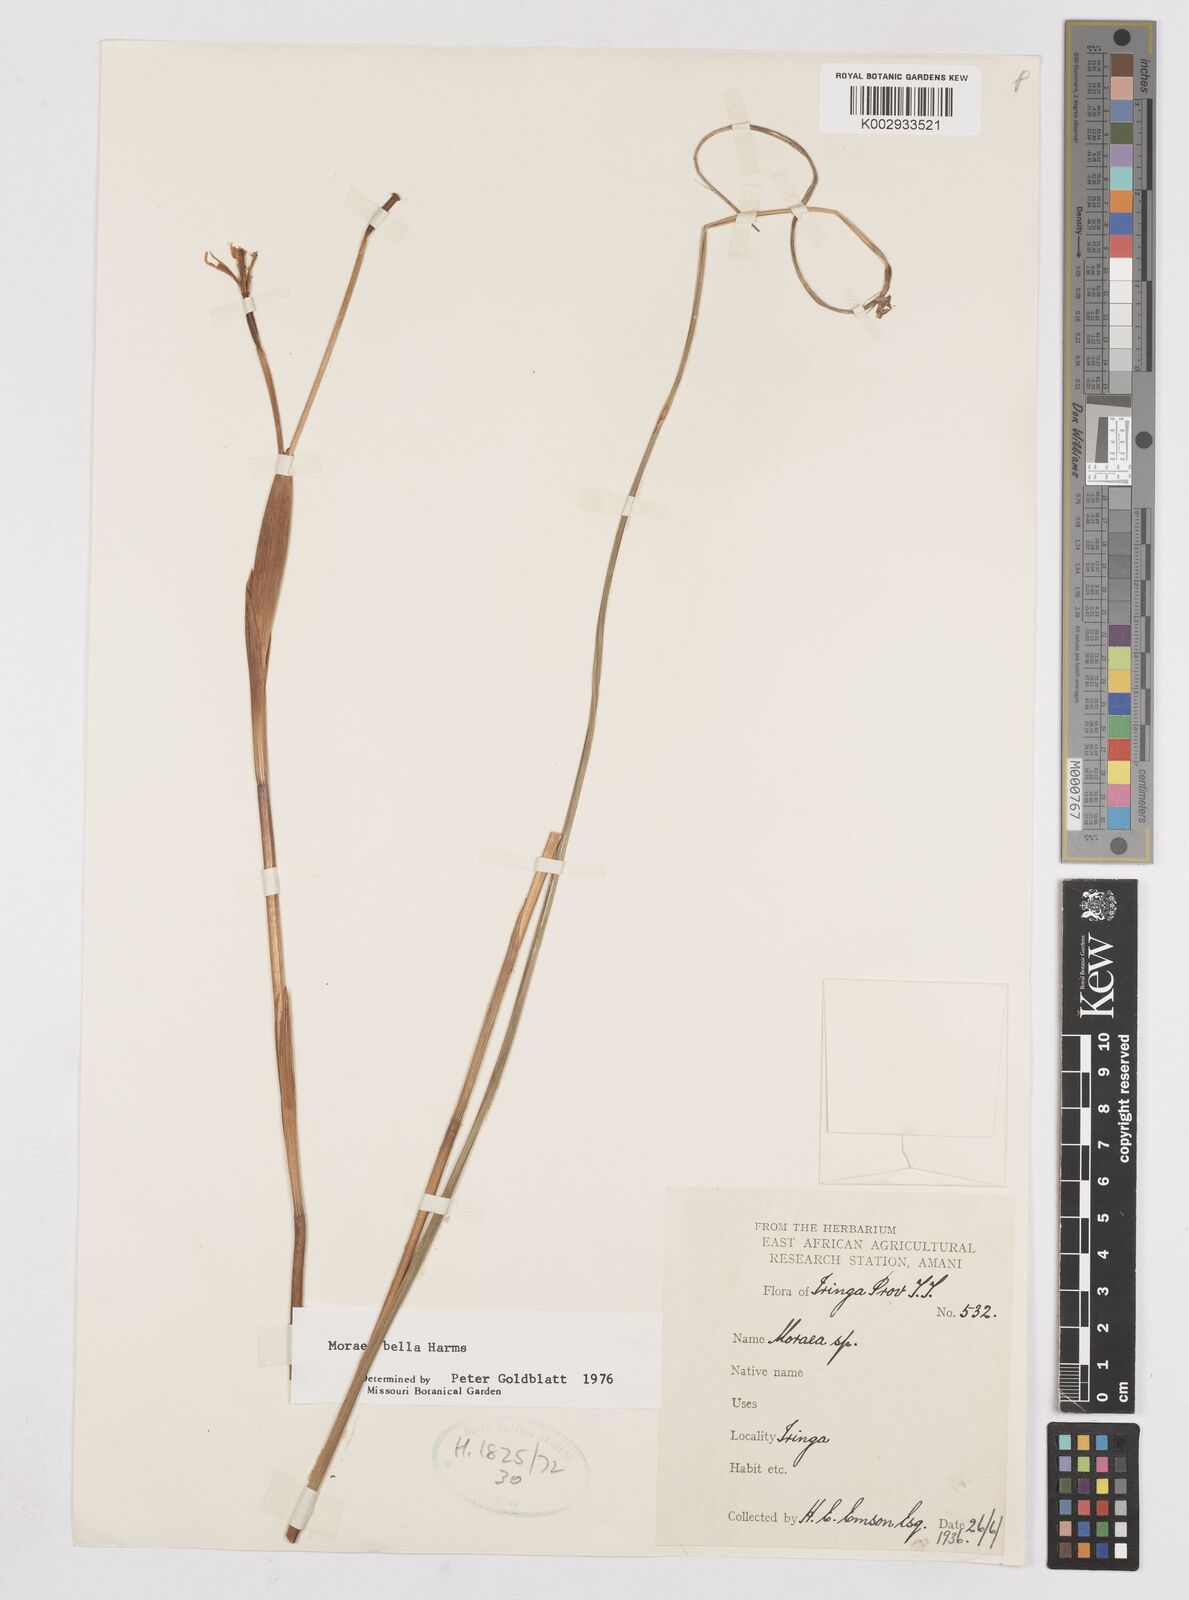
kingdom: Plantae
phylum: Tracheophyta
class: Liliopsida
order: Asparagales
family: Iridaceae
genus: Moraea
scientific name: Moraea bella
